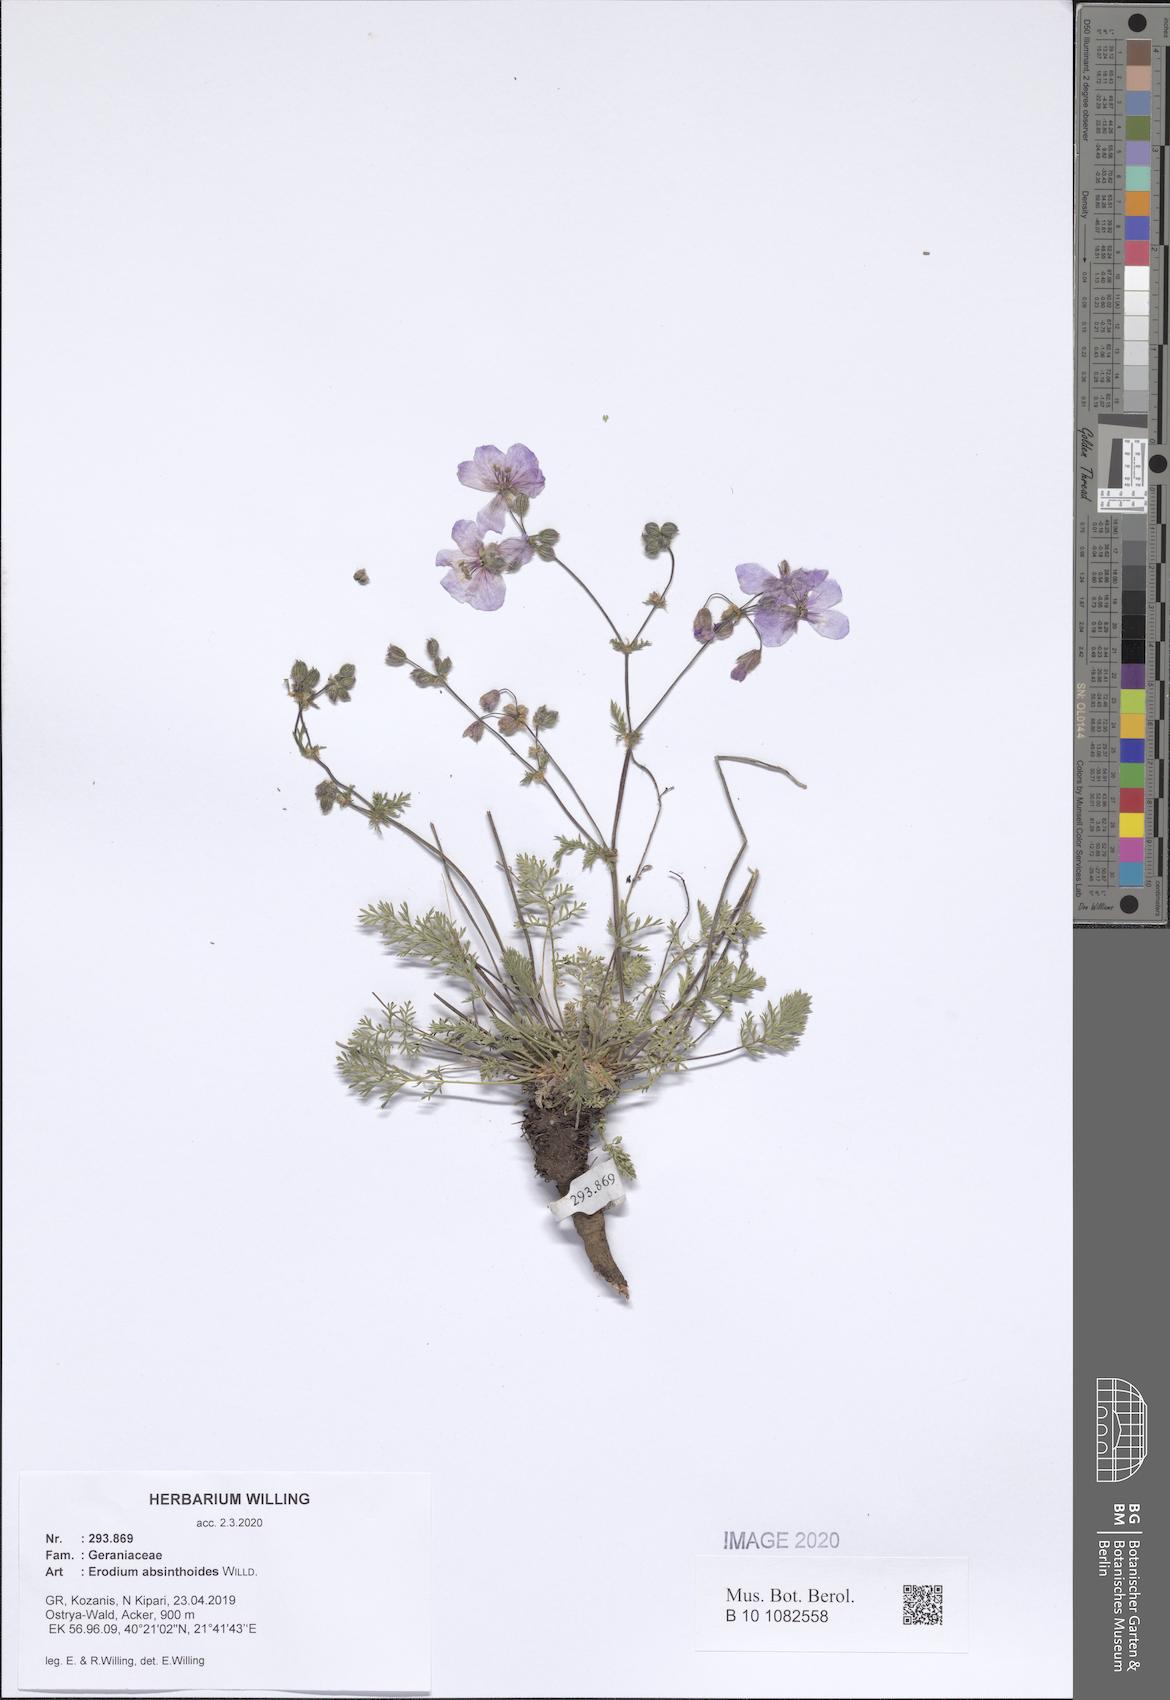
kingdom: Plantae
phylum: Tracheophyta
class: Magnoliopsida
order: Geraniales
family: Geraniaceae
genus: Erodium
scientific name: Erodium absinthoides
